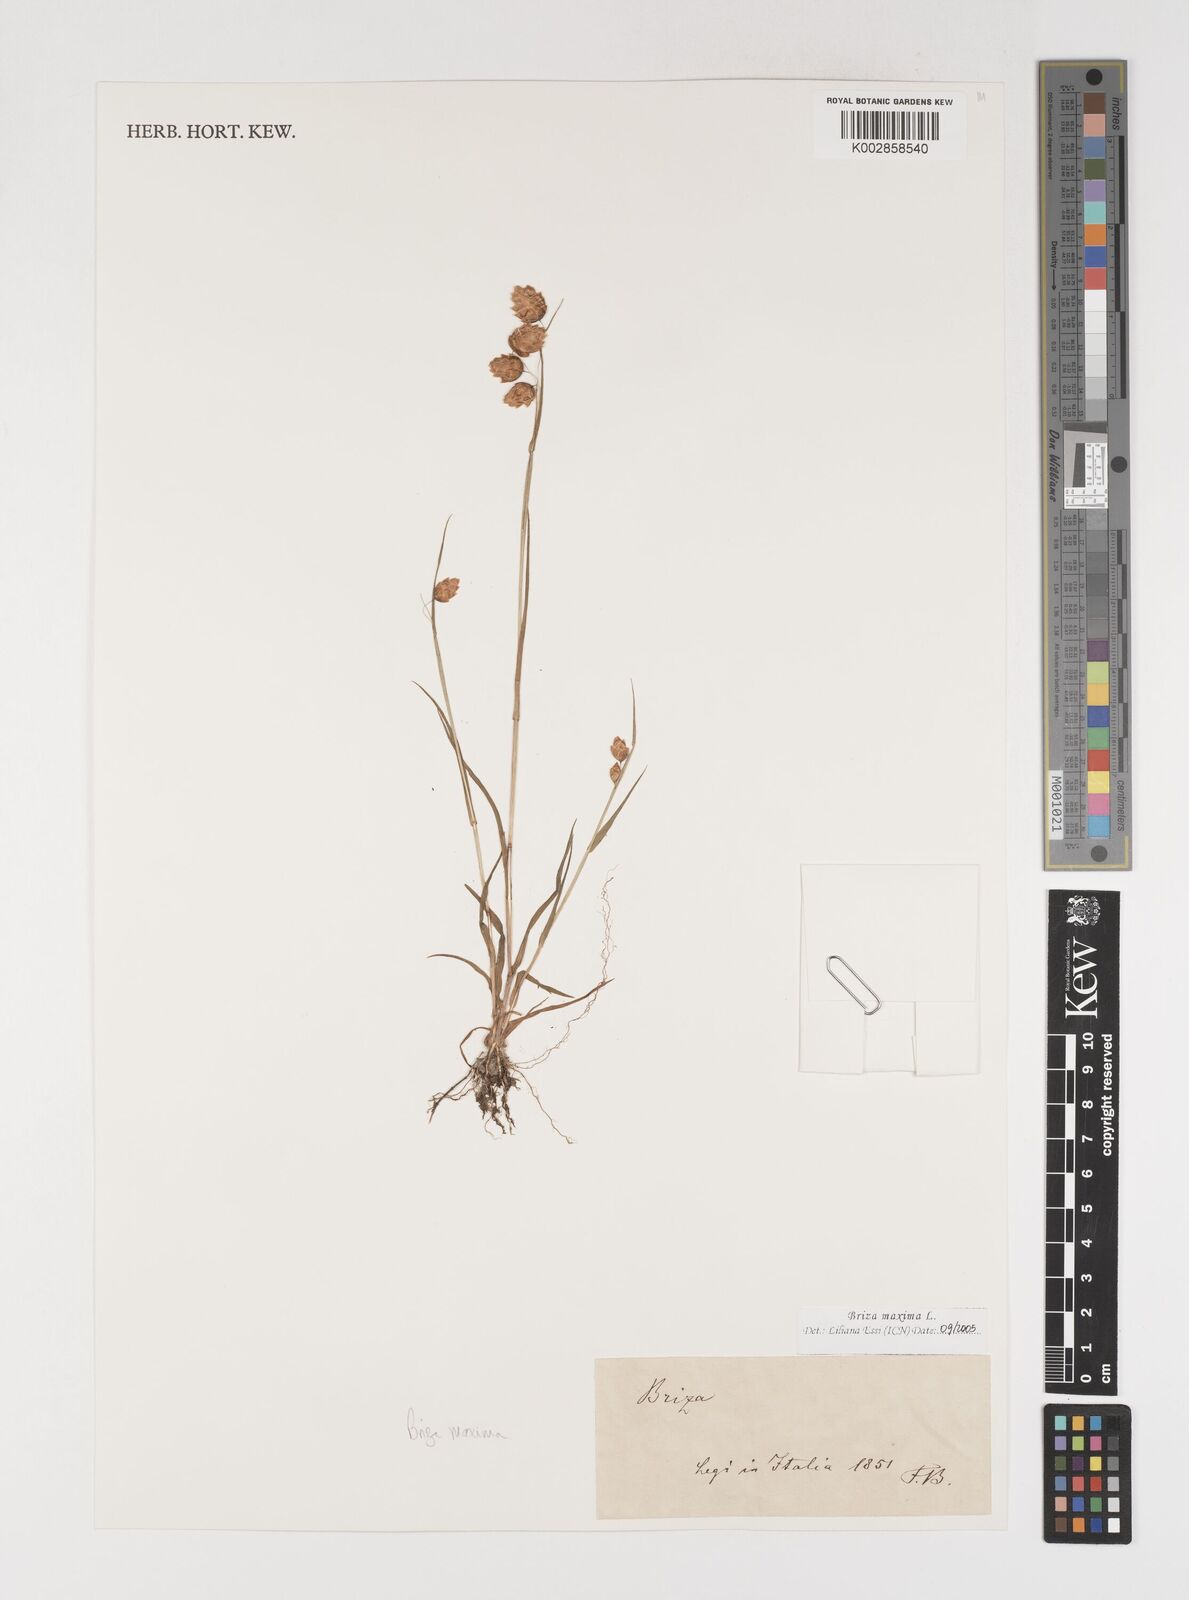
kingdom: Plantae
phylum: Tracheophyta
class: Liliopsida
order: Poales
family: Poaceae
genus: Briza
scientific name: Briza maxima
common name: Big quakinggrass
